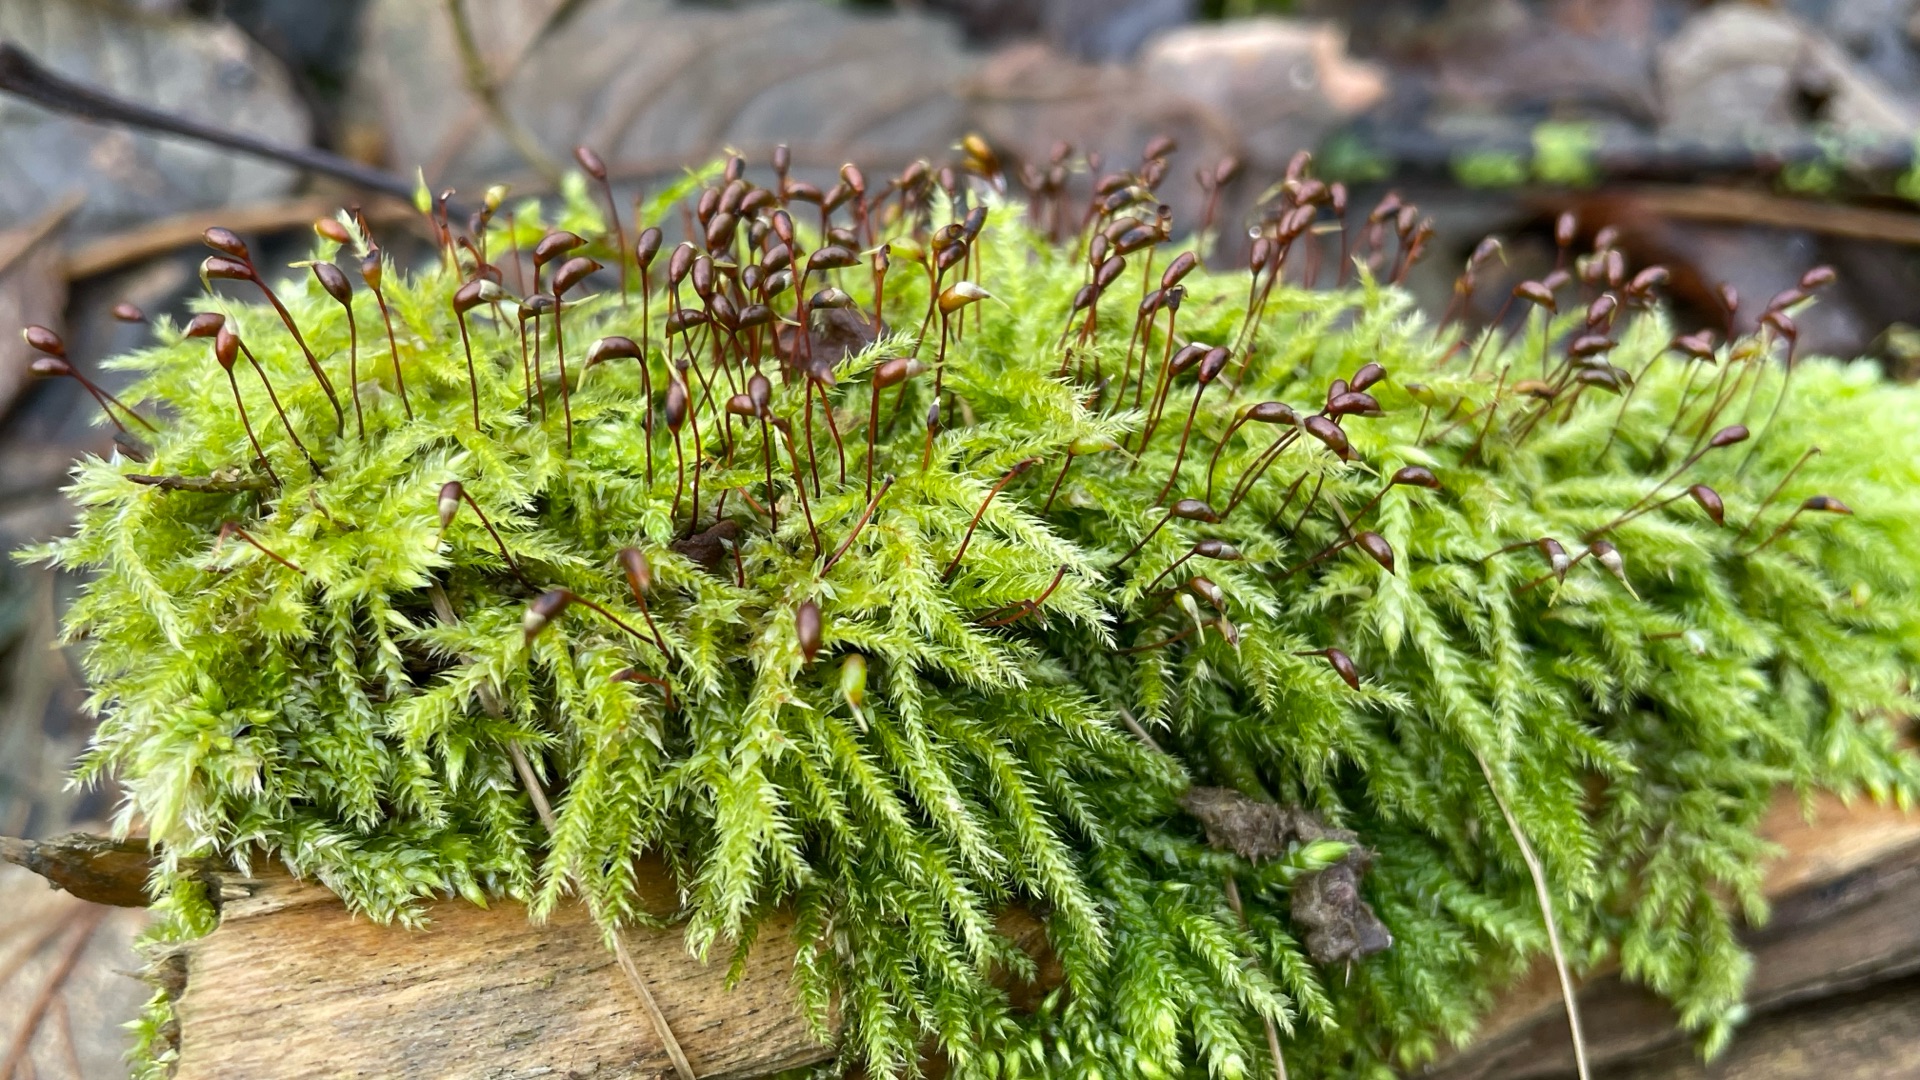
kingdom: Plantae
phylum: Bryophyta
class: Bryopsida
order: Hypnales
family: Brachytheciaceae
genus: Brachythecium
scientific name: Brachythecium rutabulum
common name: Almindelig kortkapsel
